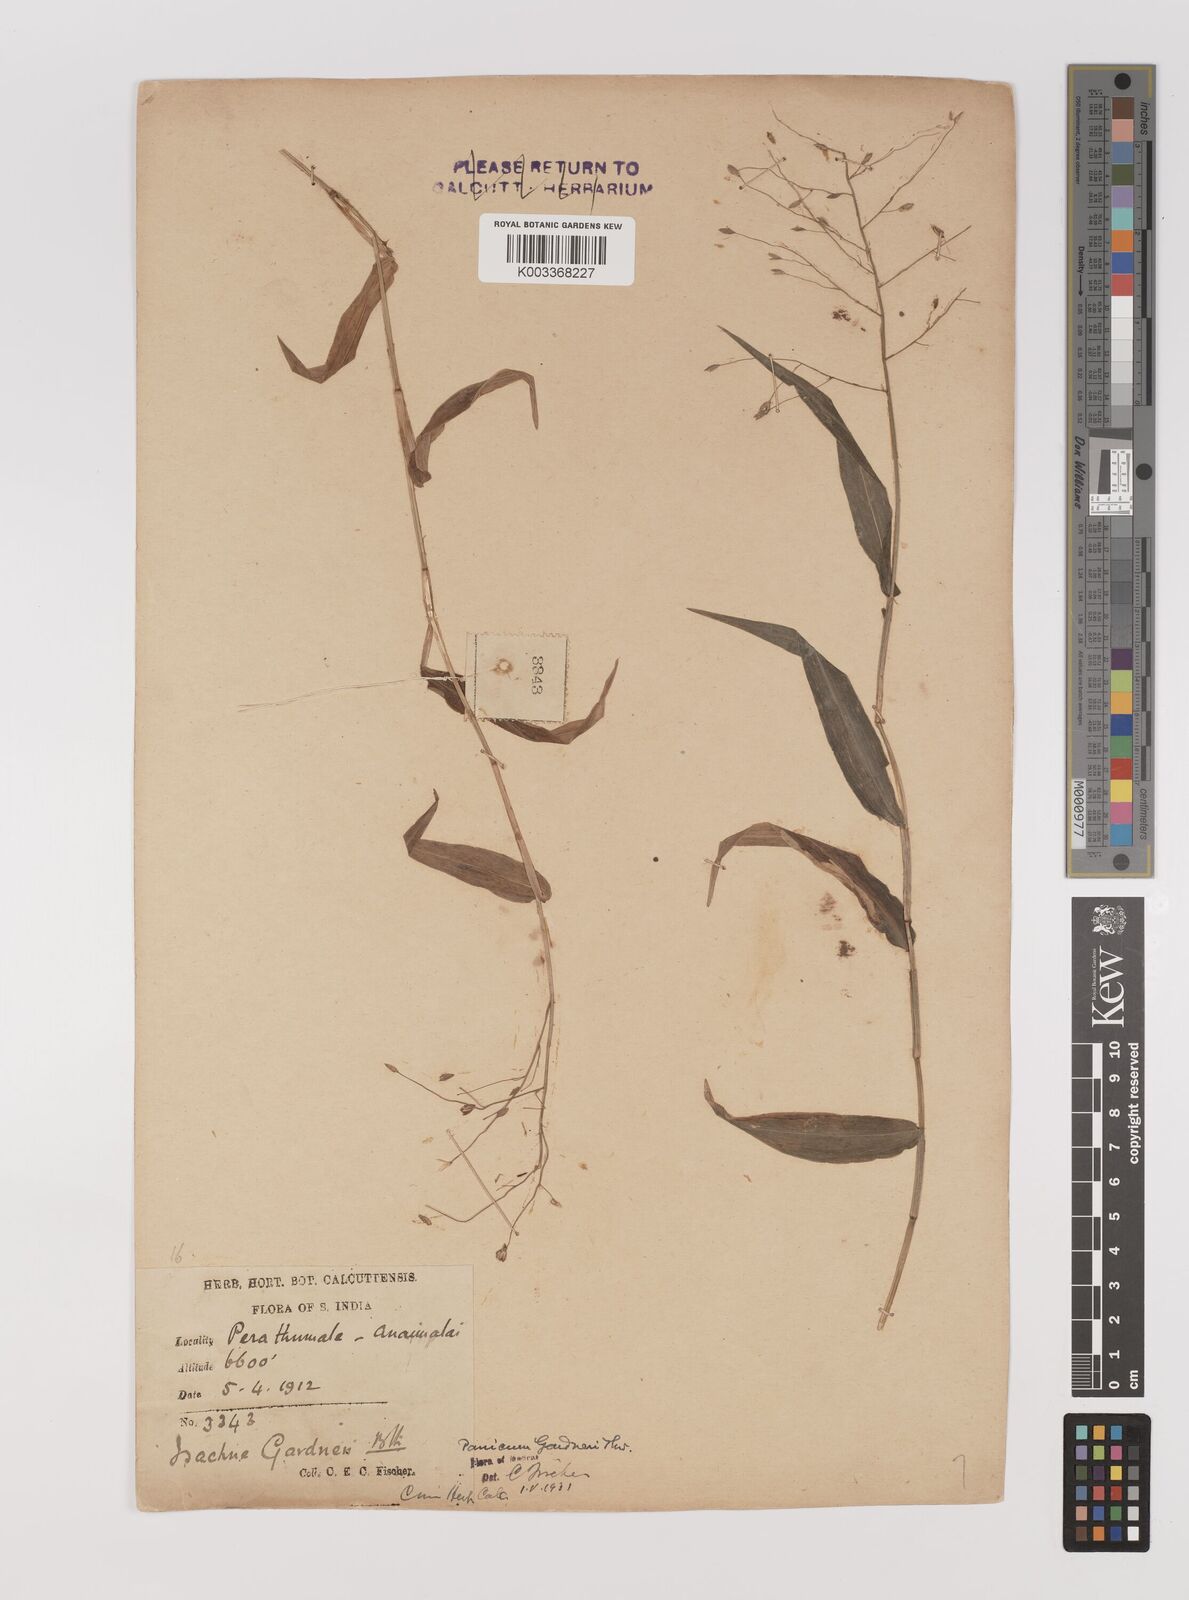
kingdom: Plantae
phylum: Tracheophyta
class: Liliopsida
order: Poales
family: Poaceae
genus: Panicum
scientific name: Panicum gardneri
